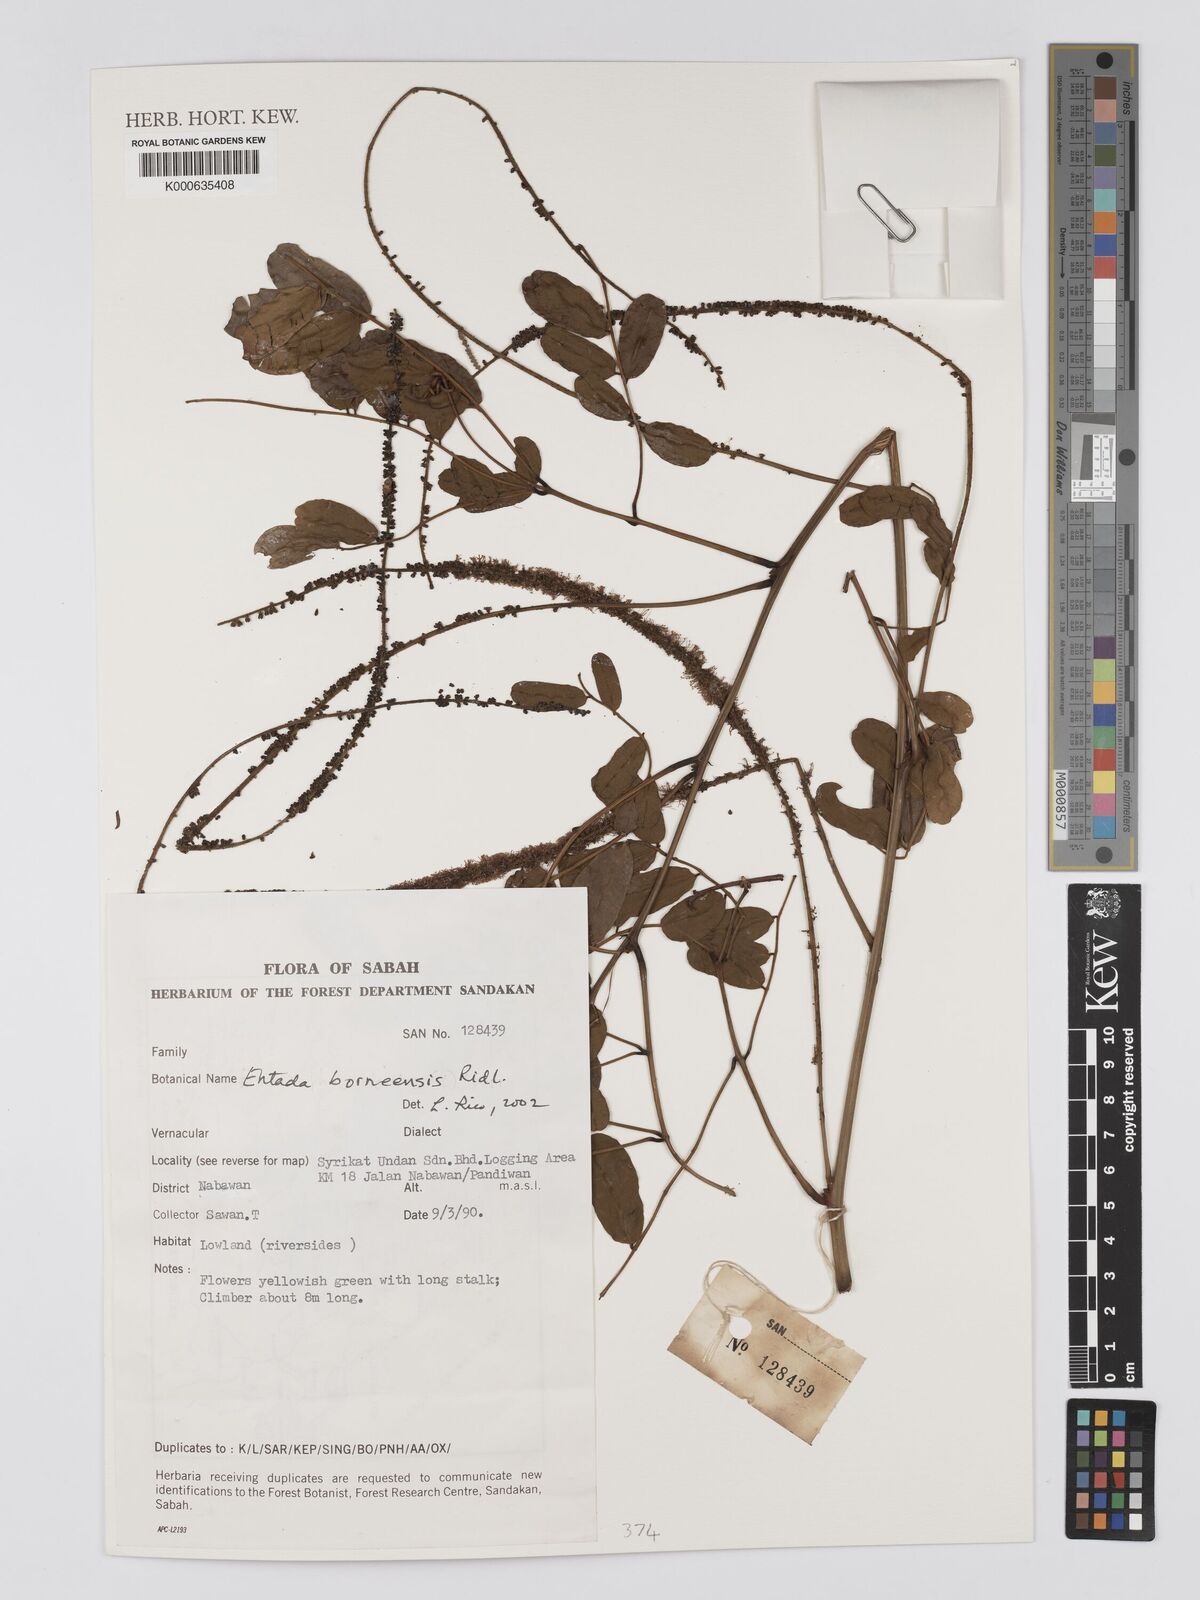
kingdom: Plantae
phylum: Tracheophyta
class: Magnoliopsida
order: Fabales
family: Fabaceae
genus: Entada
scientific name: Entada borneensis
